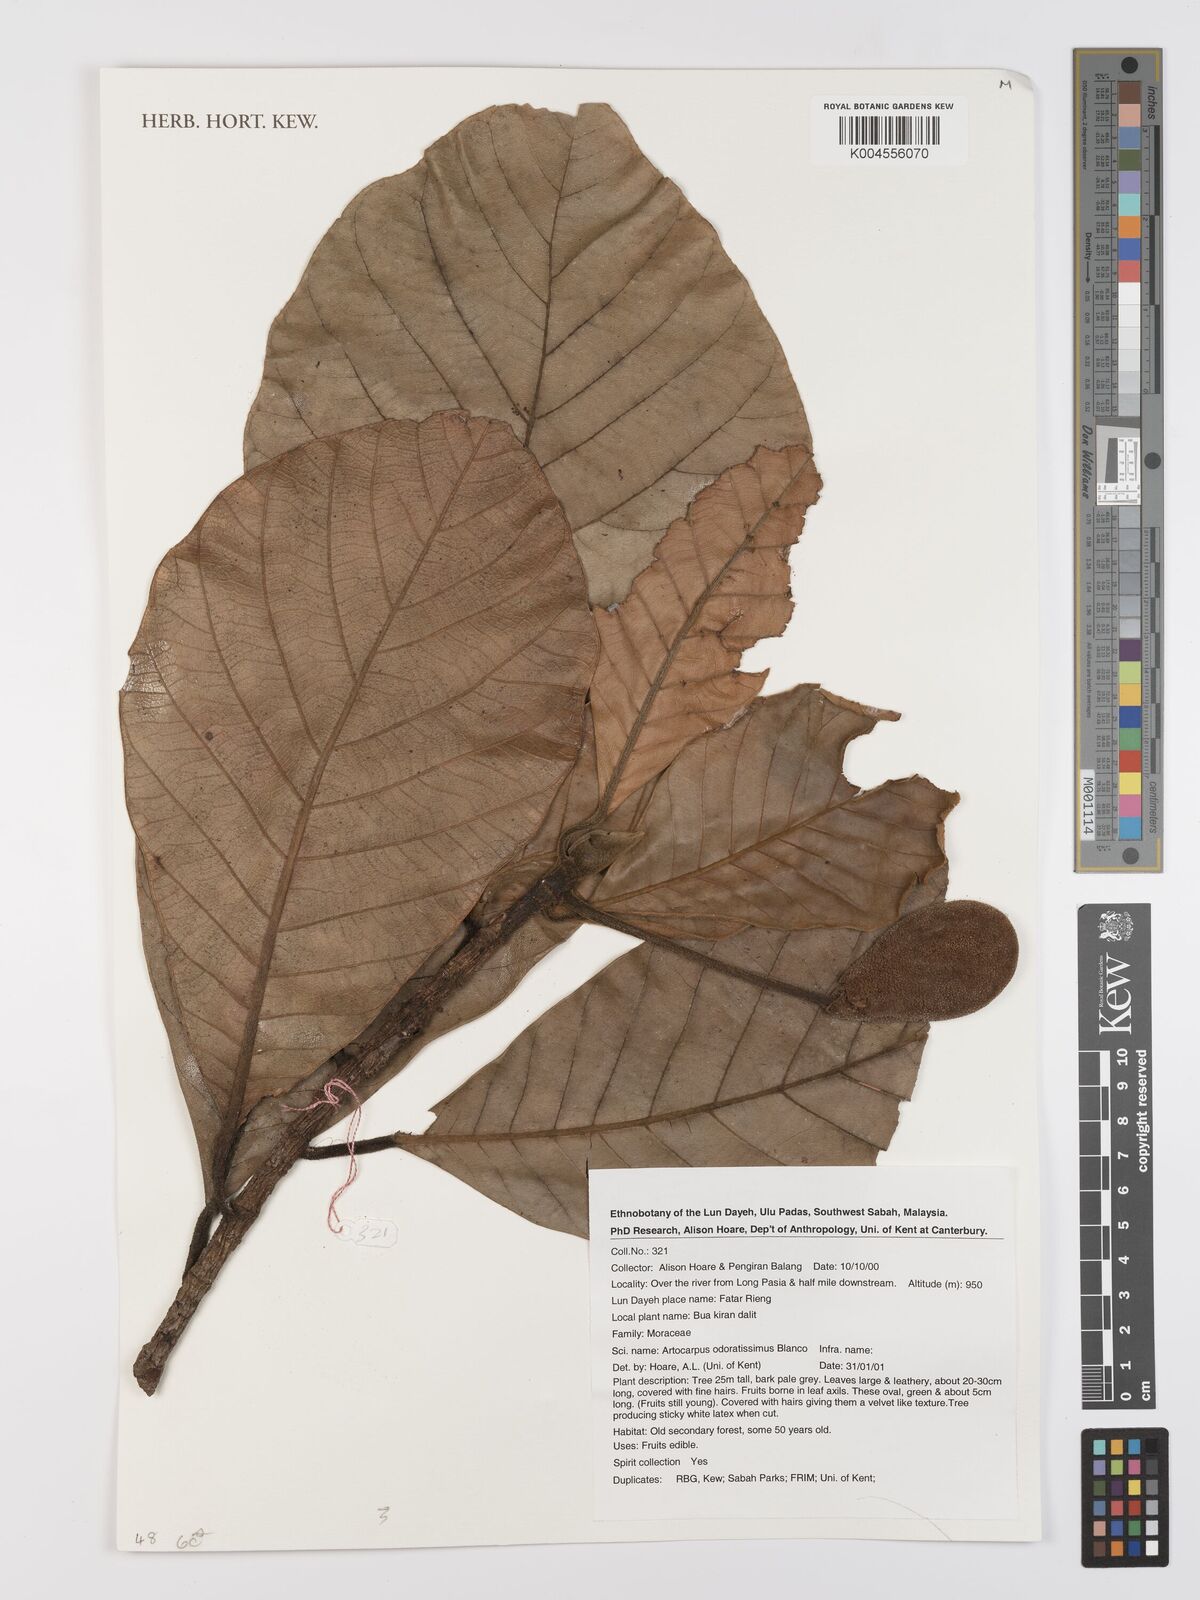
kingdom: Plantae
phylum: Tracheophyta
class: Magnoliopsida
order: Rosales
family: Moraceae
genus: Artocarpus
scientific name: Artocarpus odoratissimus
